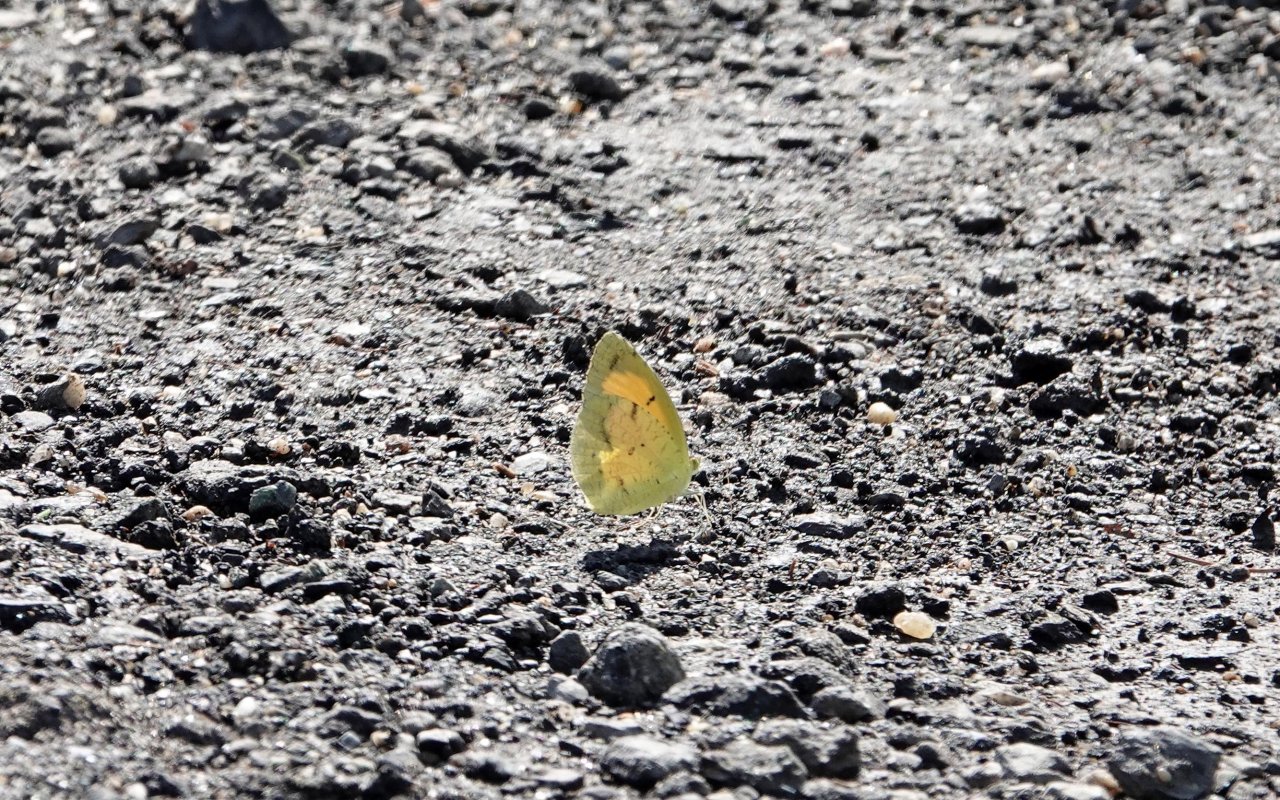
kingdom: Animalia
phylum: Arthropoda
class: Insecta
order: Lepidoptera
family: Pieridae
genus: Abaeis
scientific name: Abaeis nicippe
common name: Sleepy Orange
